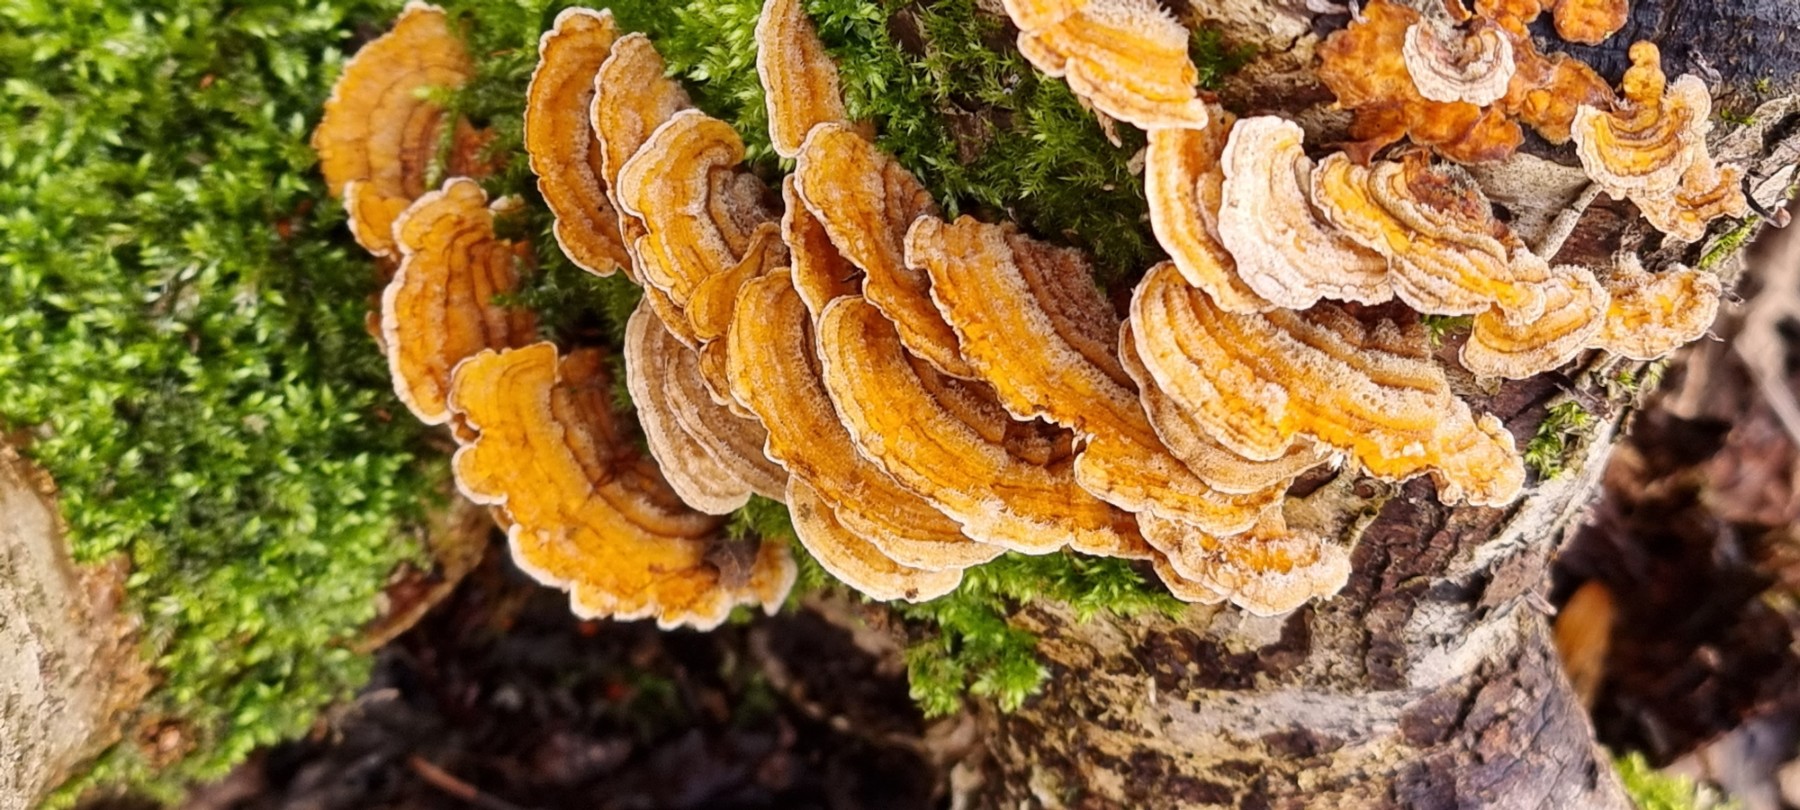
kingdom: Fungi
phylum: Basidiomycota
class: Agaricomycetes
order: Russulales
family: Stereaceae
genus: Stereum
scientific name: Stereum hirsutum
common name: håret lædersvamp
